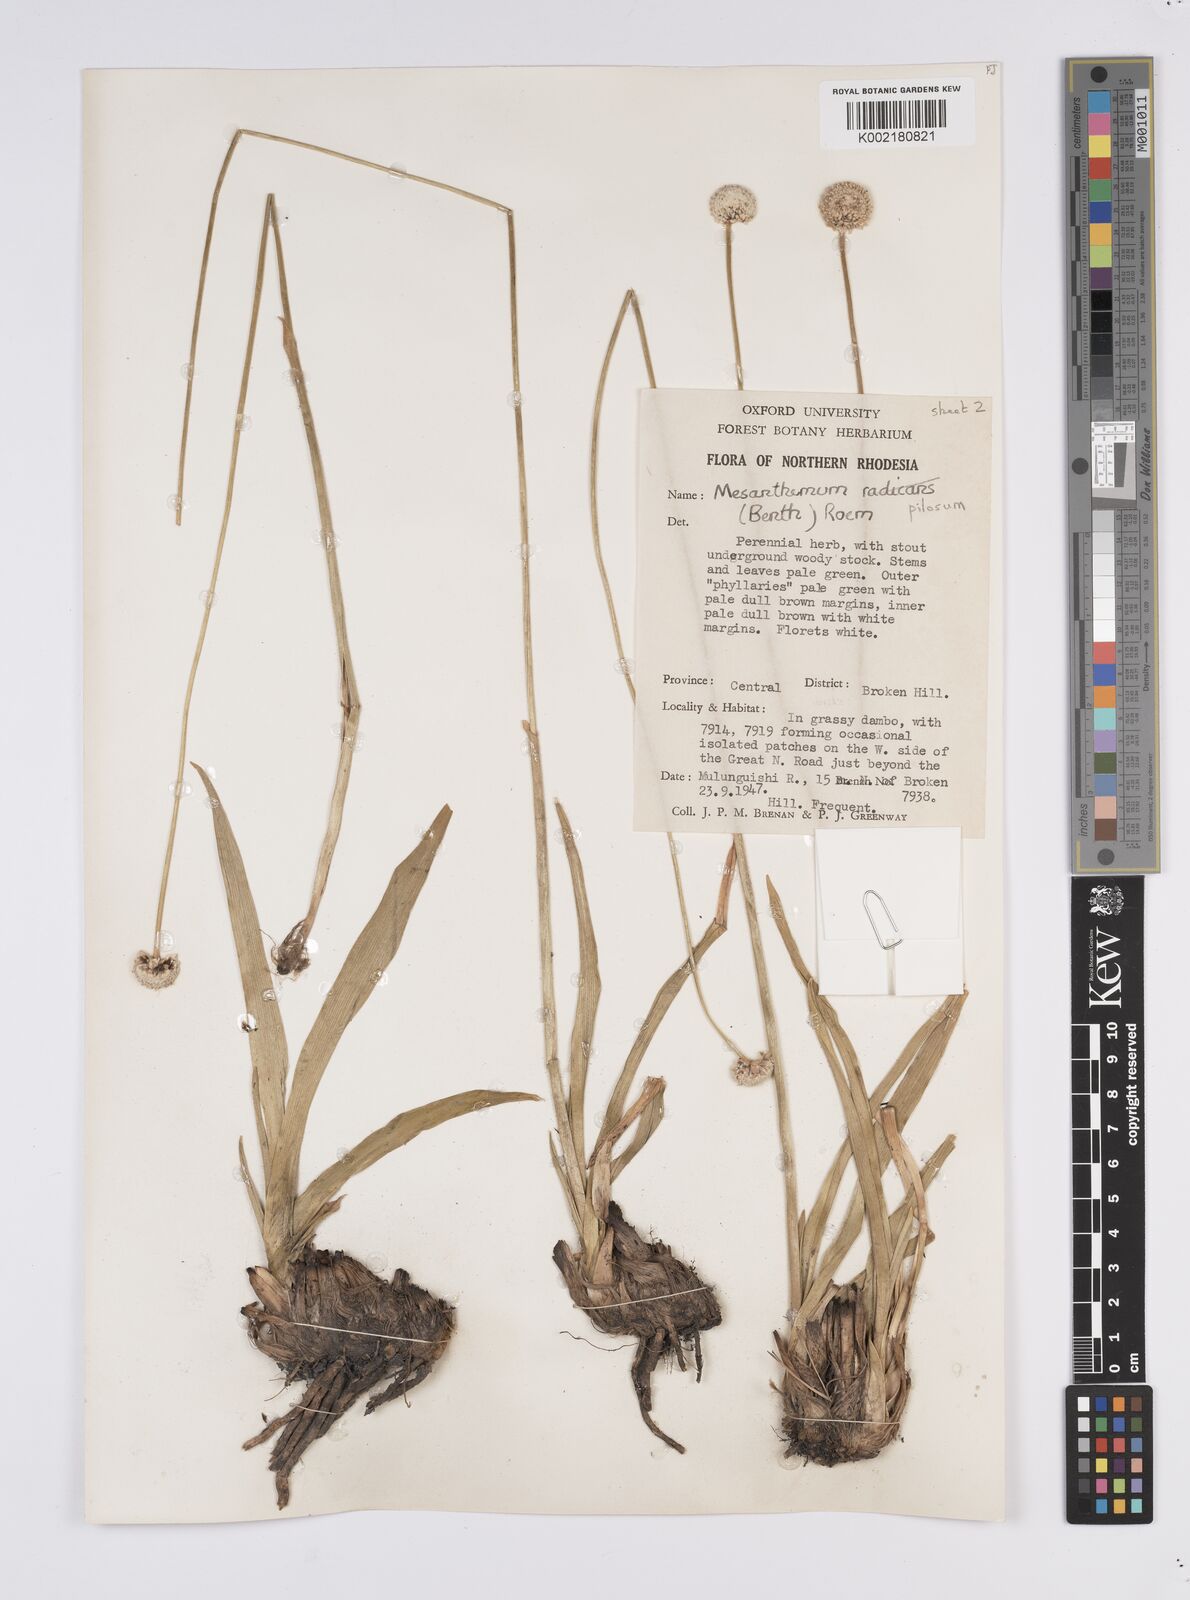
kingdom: Plantae
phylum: Tracheophyta
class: Liliopsida
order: Poales
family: Eriocaulaceae
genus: Mesanthemum
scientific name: Mesanthemum pilosum
